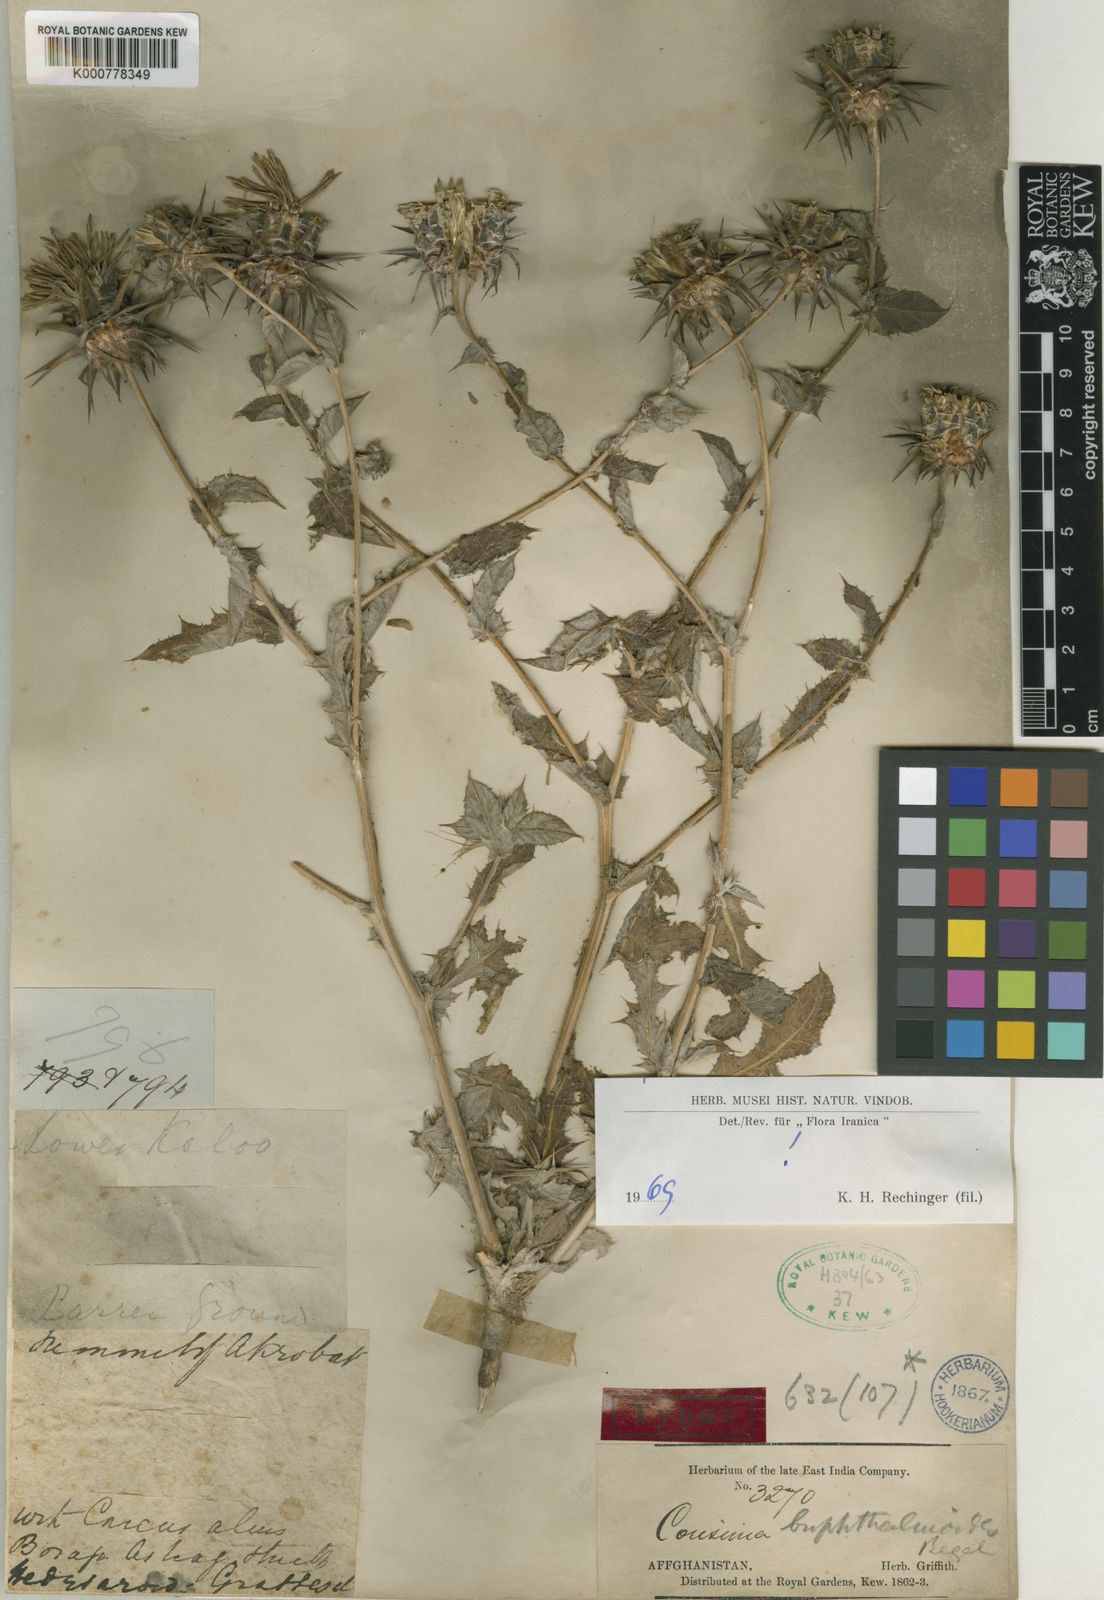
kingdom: Plantae
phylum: Tracheophyta
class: Magnoliopsida
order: Asterales
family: Asteraceae
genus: Cousinia
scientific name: Cousinia buphthalmoides
